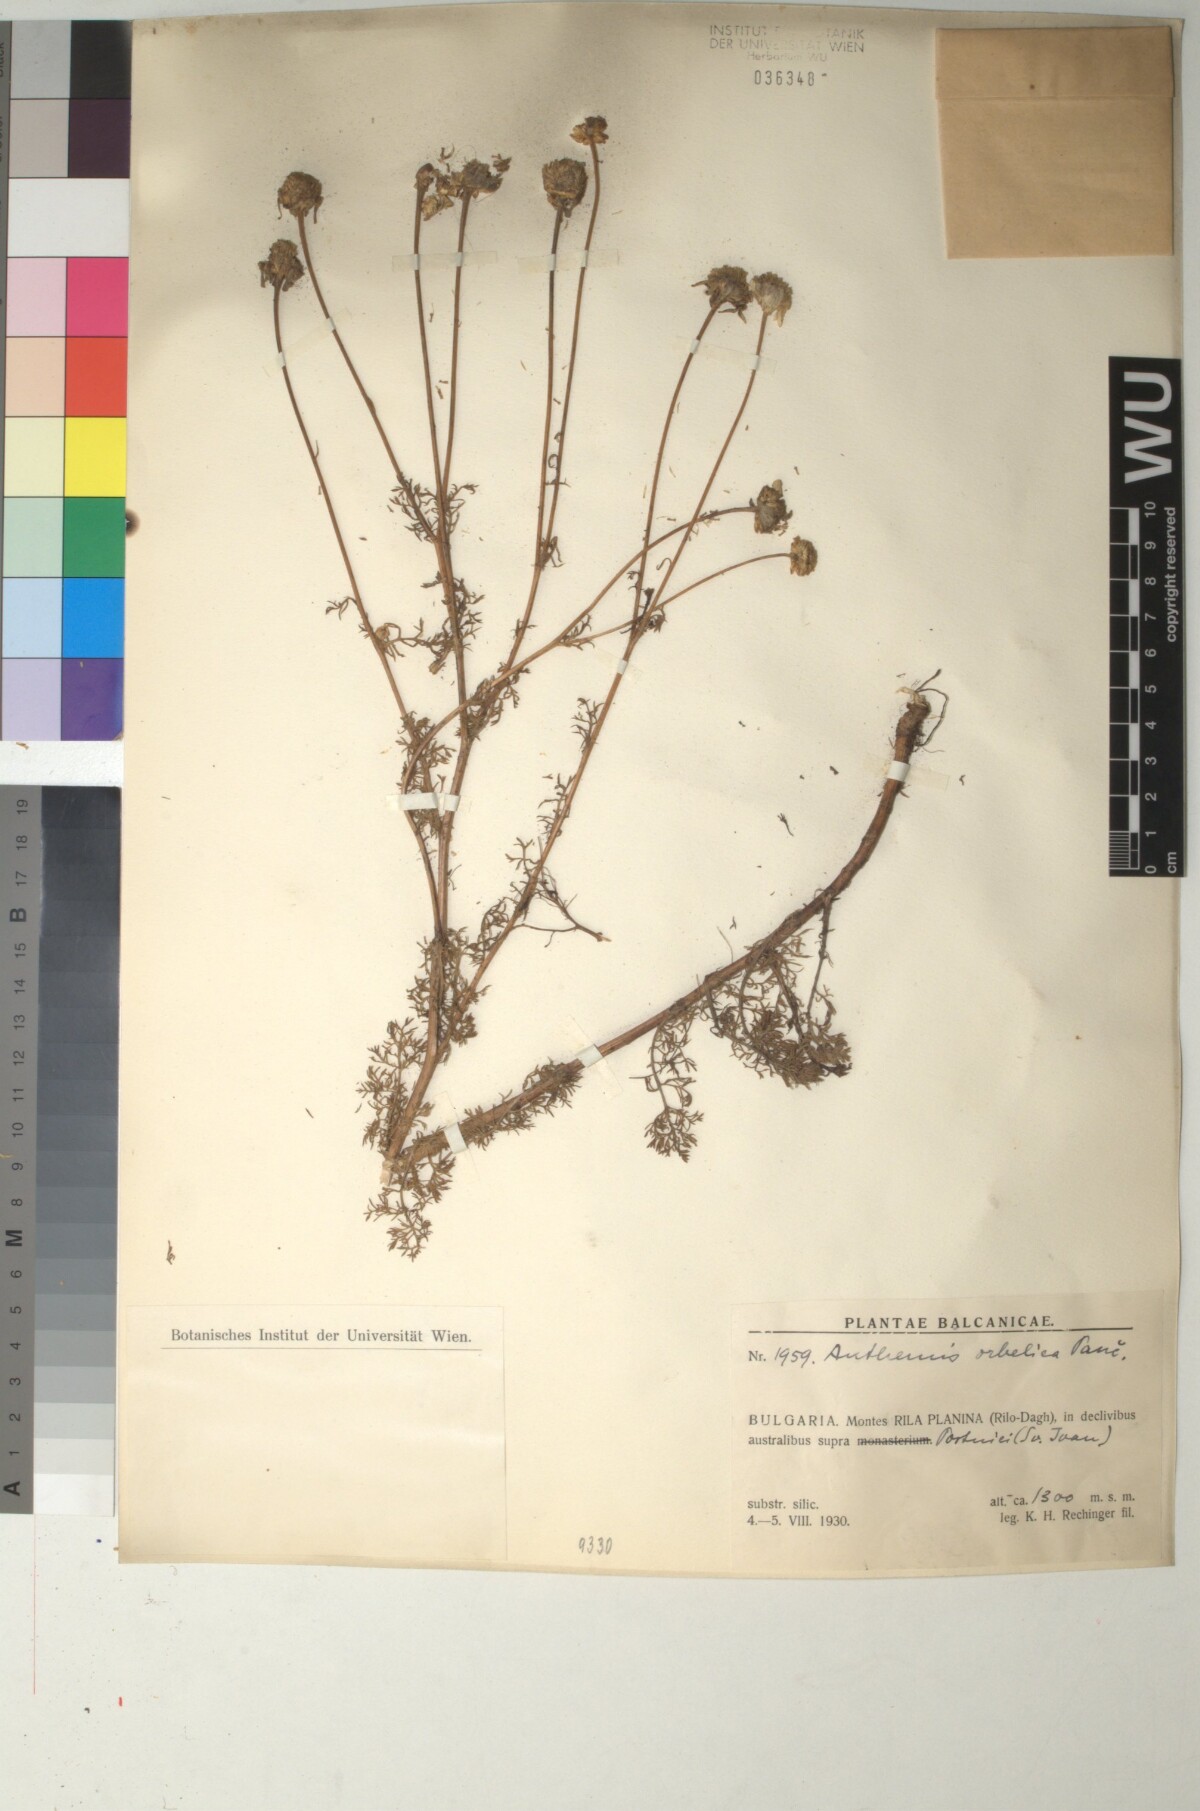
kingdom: Plantae
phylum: Tracheophyta
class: Magnoliopsida
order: Asterales
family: Asteraceae
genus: Anthemis
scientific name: Anthemis orbelica
